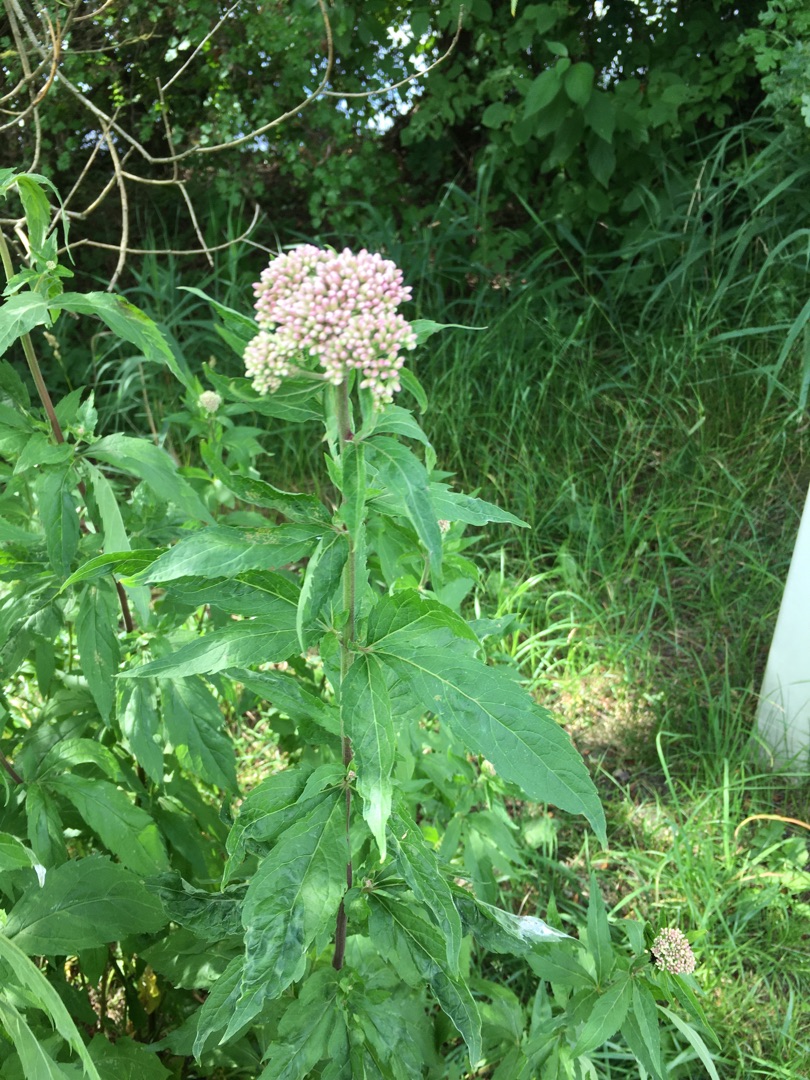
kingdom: Plantae
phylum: Tracheophyta
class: Magnoliopsida
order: Asterales
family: Asteraceae
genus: Eupatorium
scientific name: Eupatorium cannabinum
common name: Hjortetrøst
